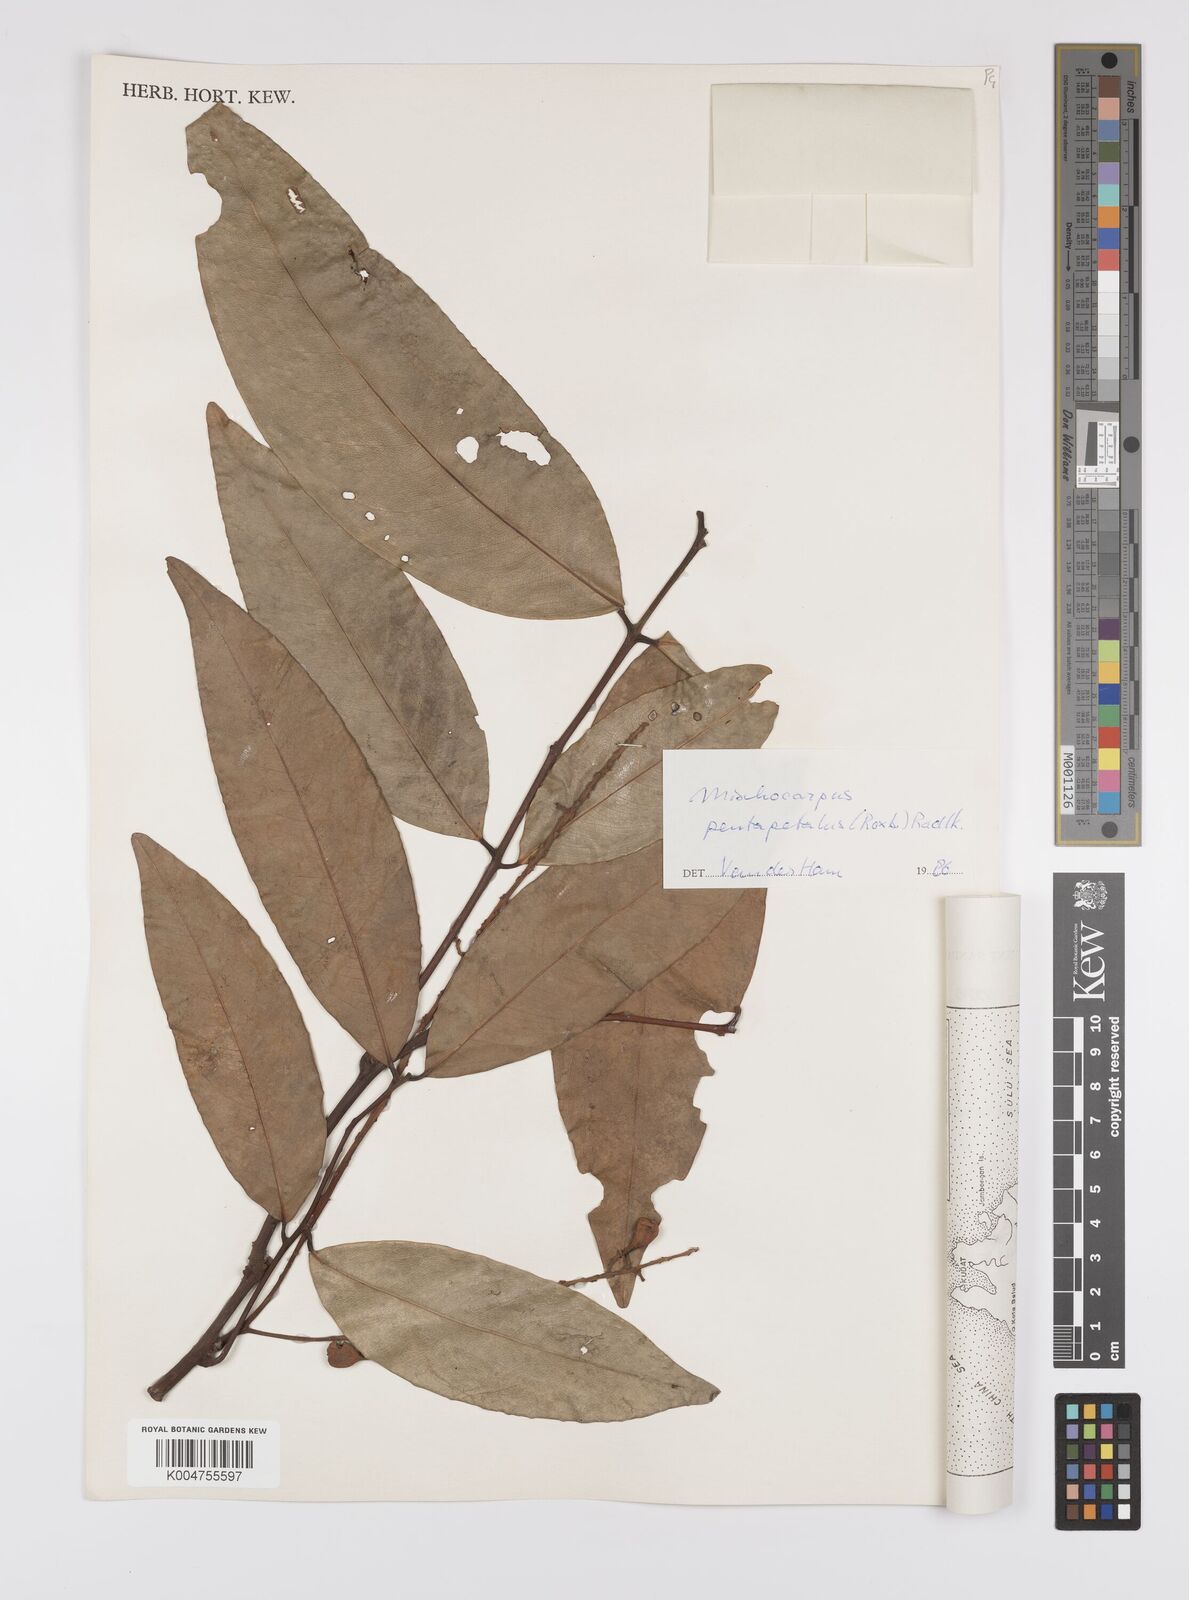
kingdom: Plantae
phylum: Tracheophyta
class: Magnoliopsida
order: Sapindales
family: Sapindaceae
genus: Mischocarpus
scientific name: Mischocarpus pentapetalus
